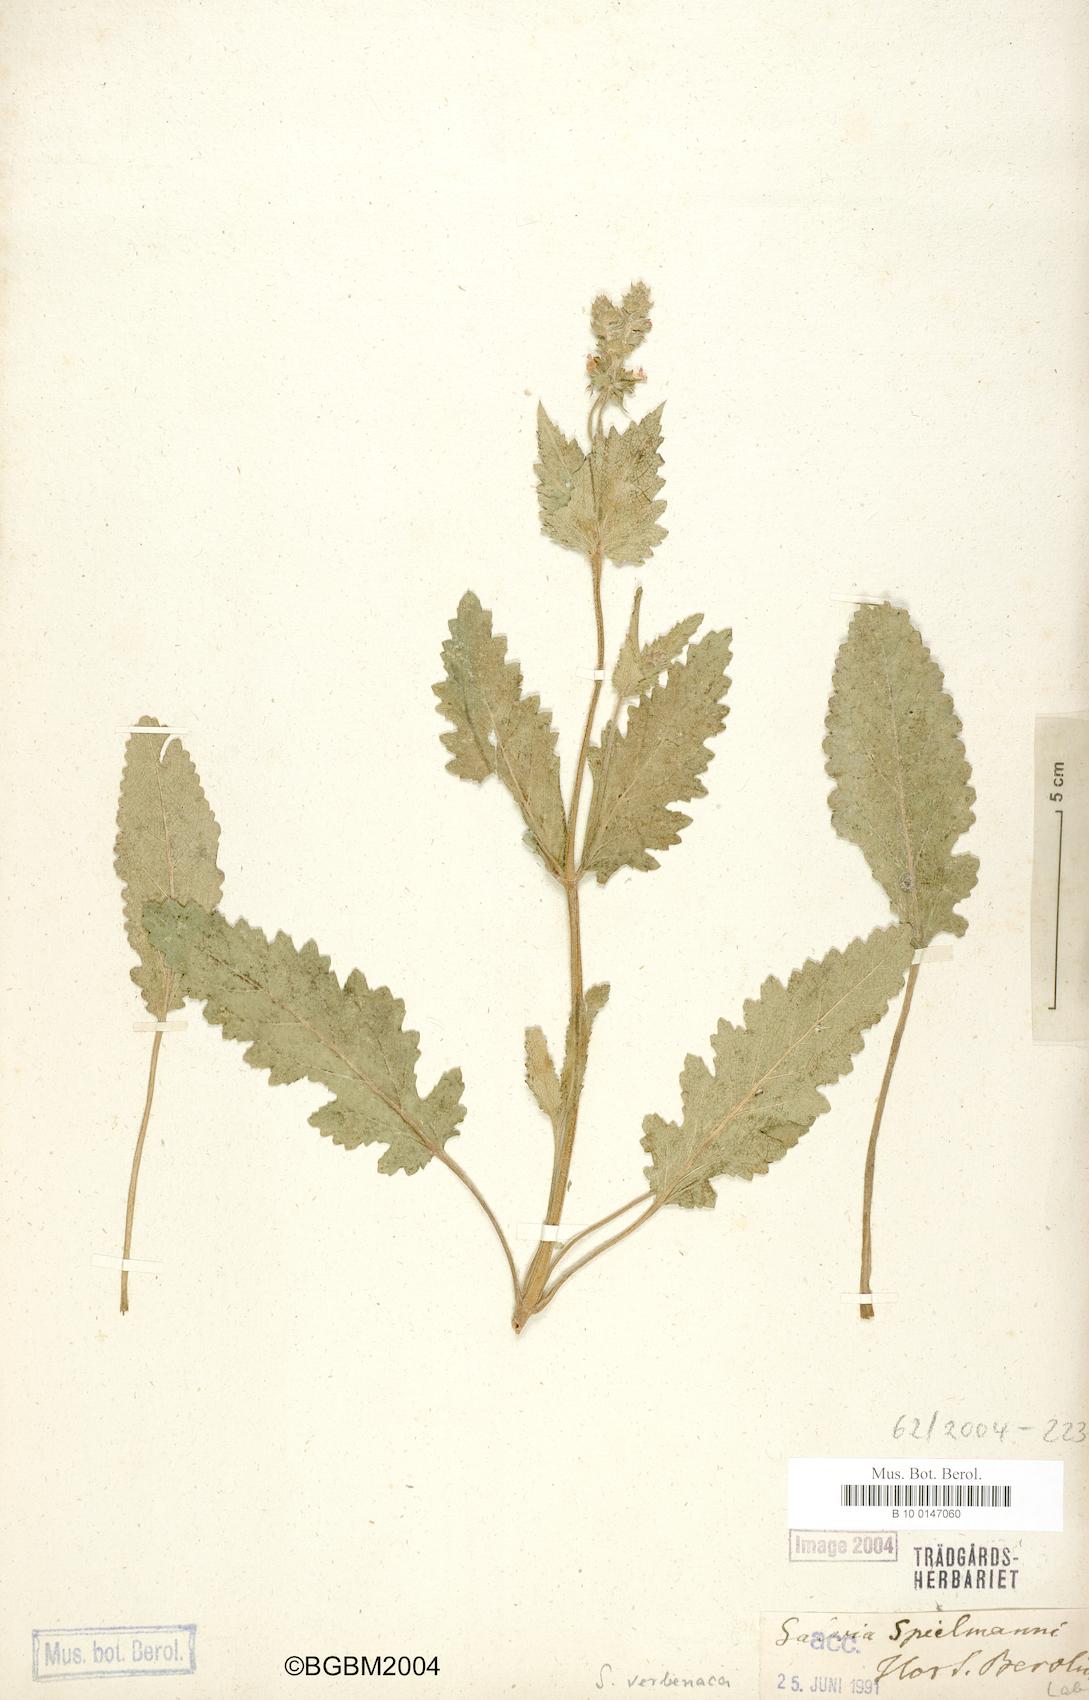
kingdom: Plantae
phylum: Tracheophyta
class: Magnoliopsida
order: Lamiales
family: Lamiaceae
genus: Salvia
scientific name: Salvia verbenaca
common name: Wild clary
